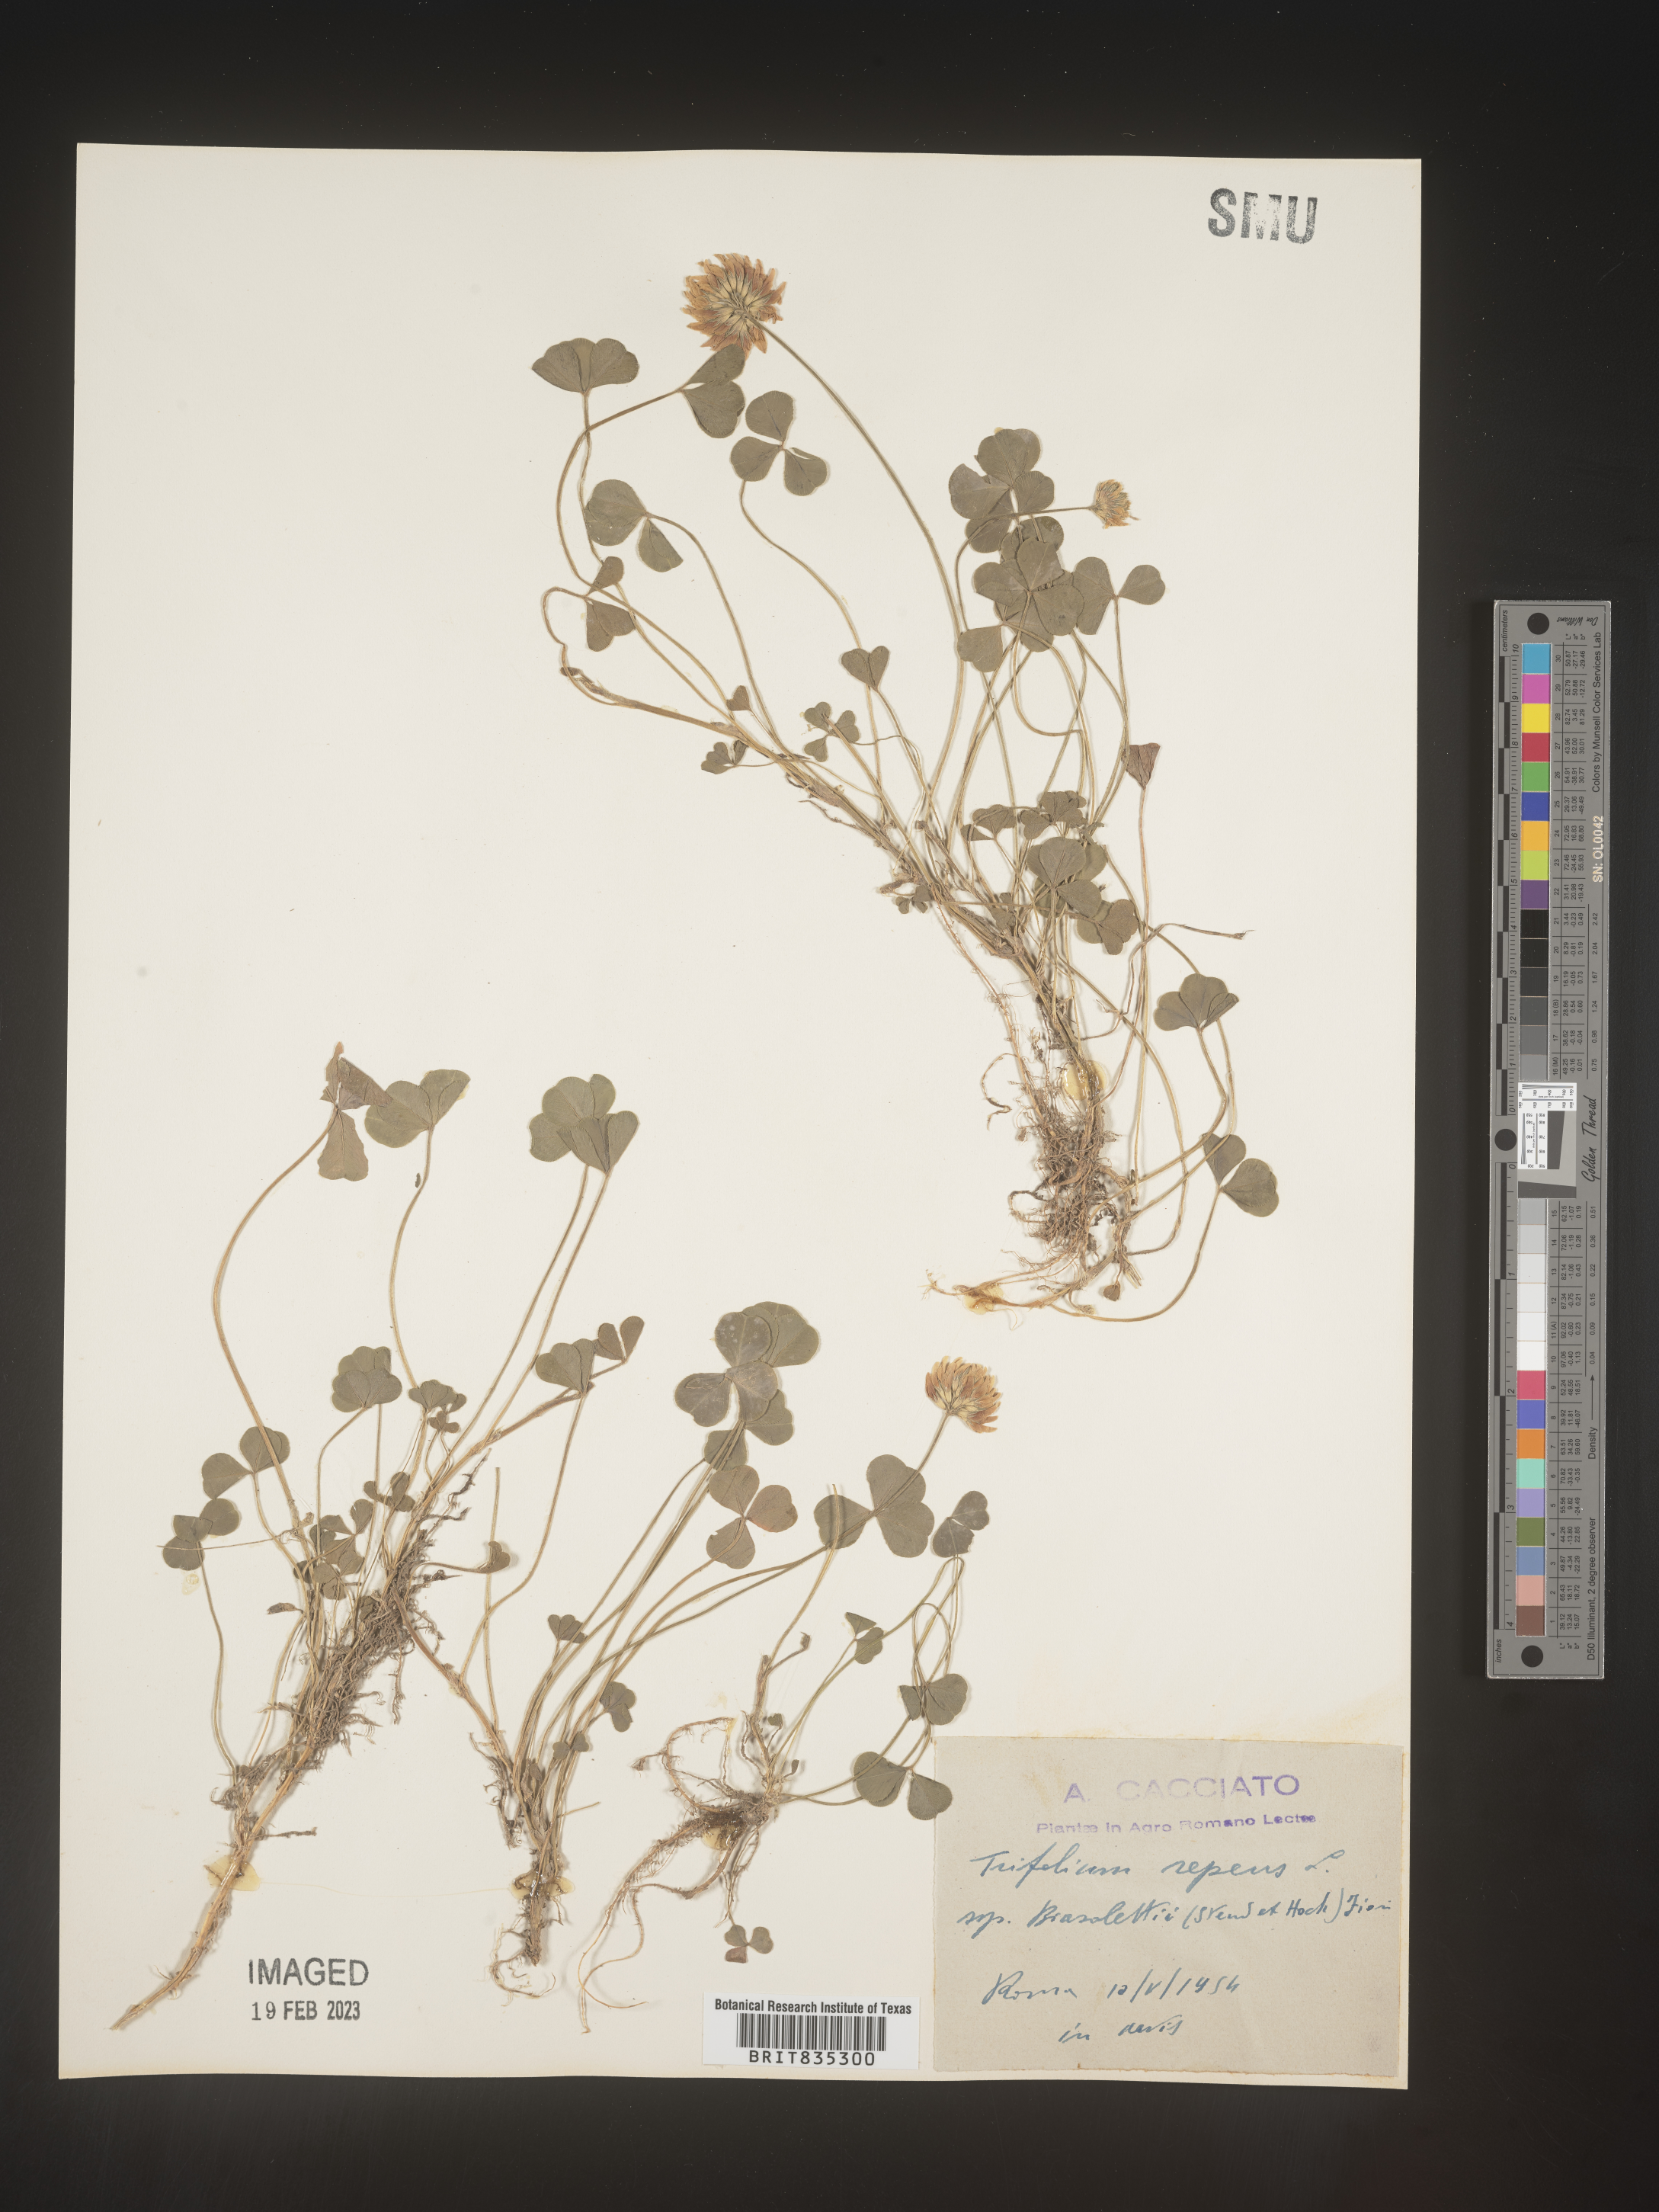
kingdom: Plantae
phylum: Tracheophyta
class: Magnoliopsida
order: Fabales
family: Fabaceae
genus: Trifolium
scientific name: Trifolium
